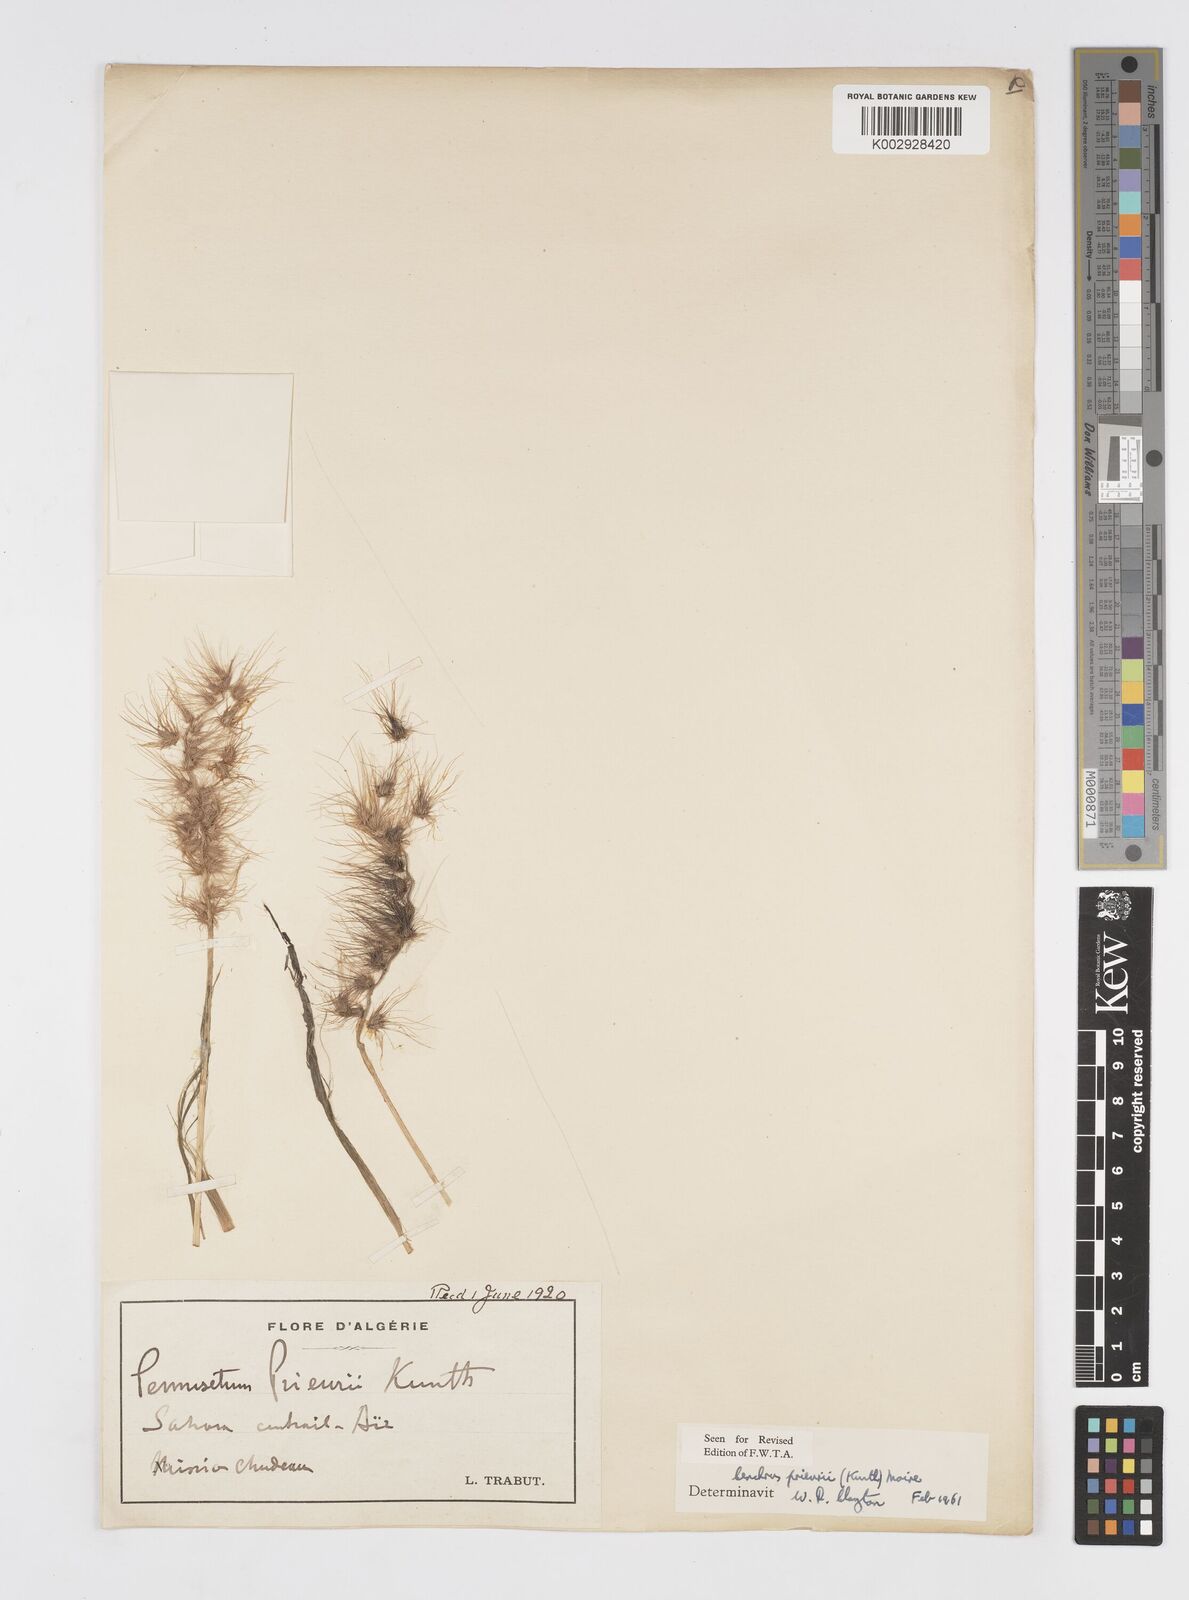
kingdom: Plantae
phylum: Tracheophyta
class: Liliopsida
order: Poales
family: Poaceae
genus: Cenchrus
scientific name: Cenchrus prieurii
